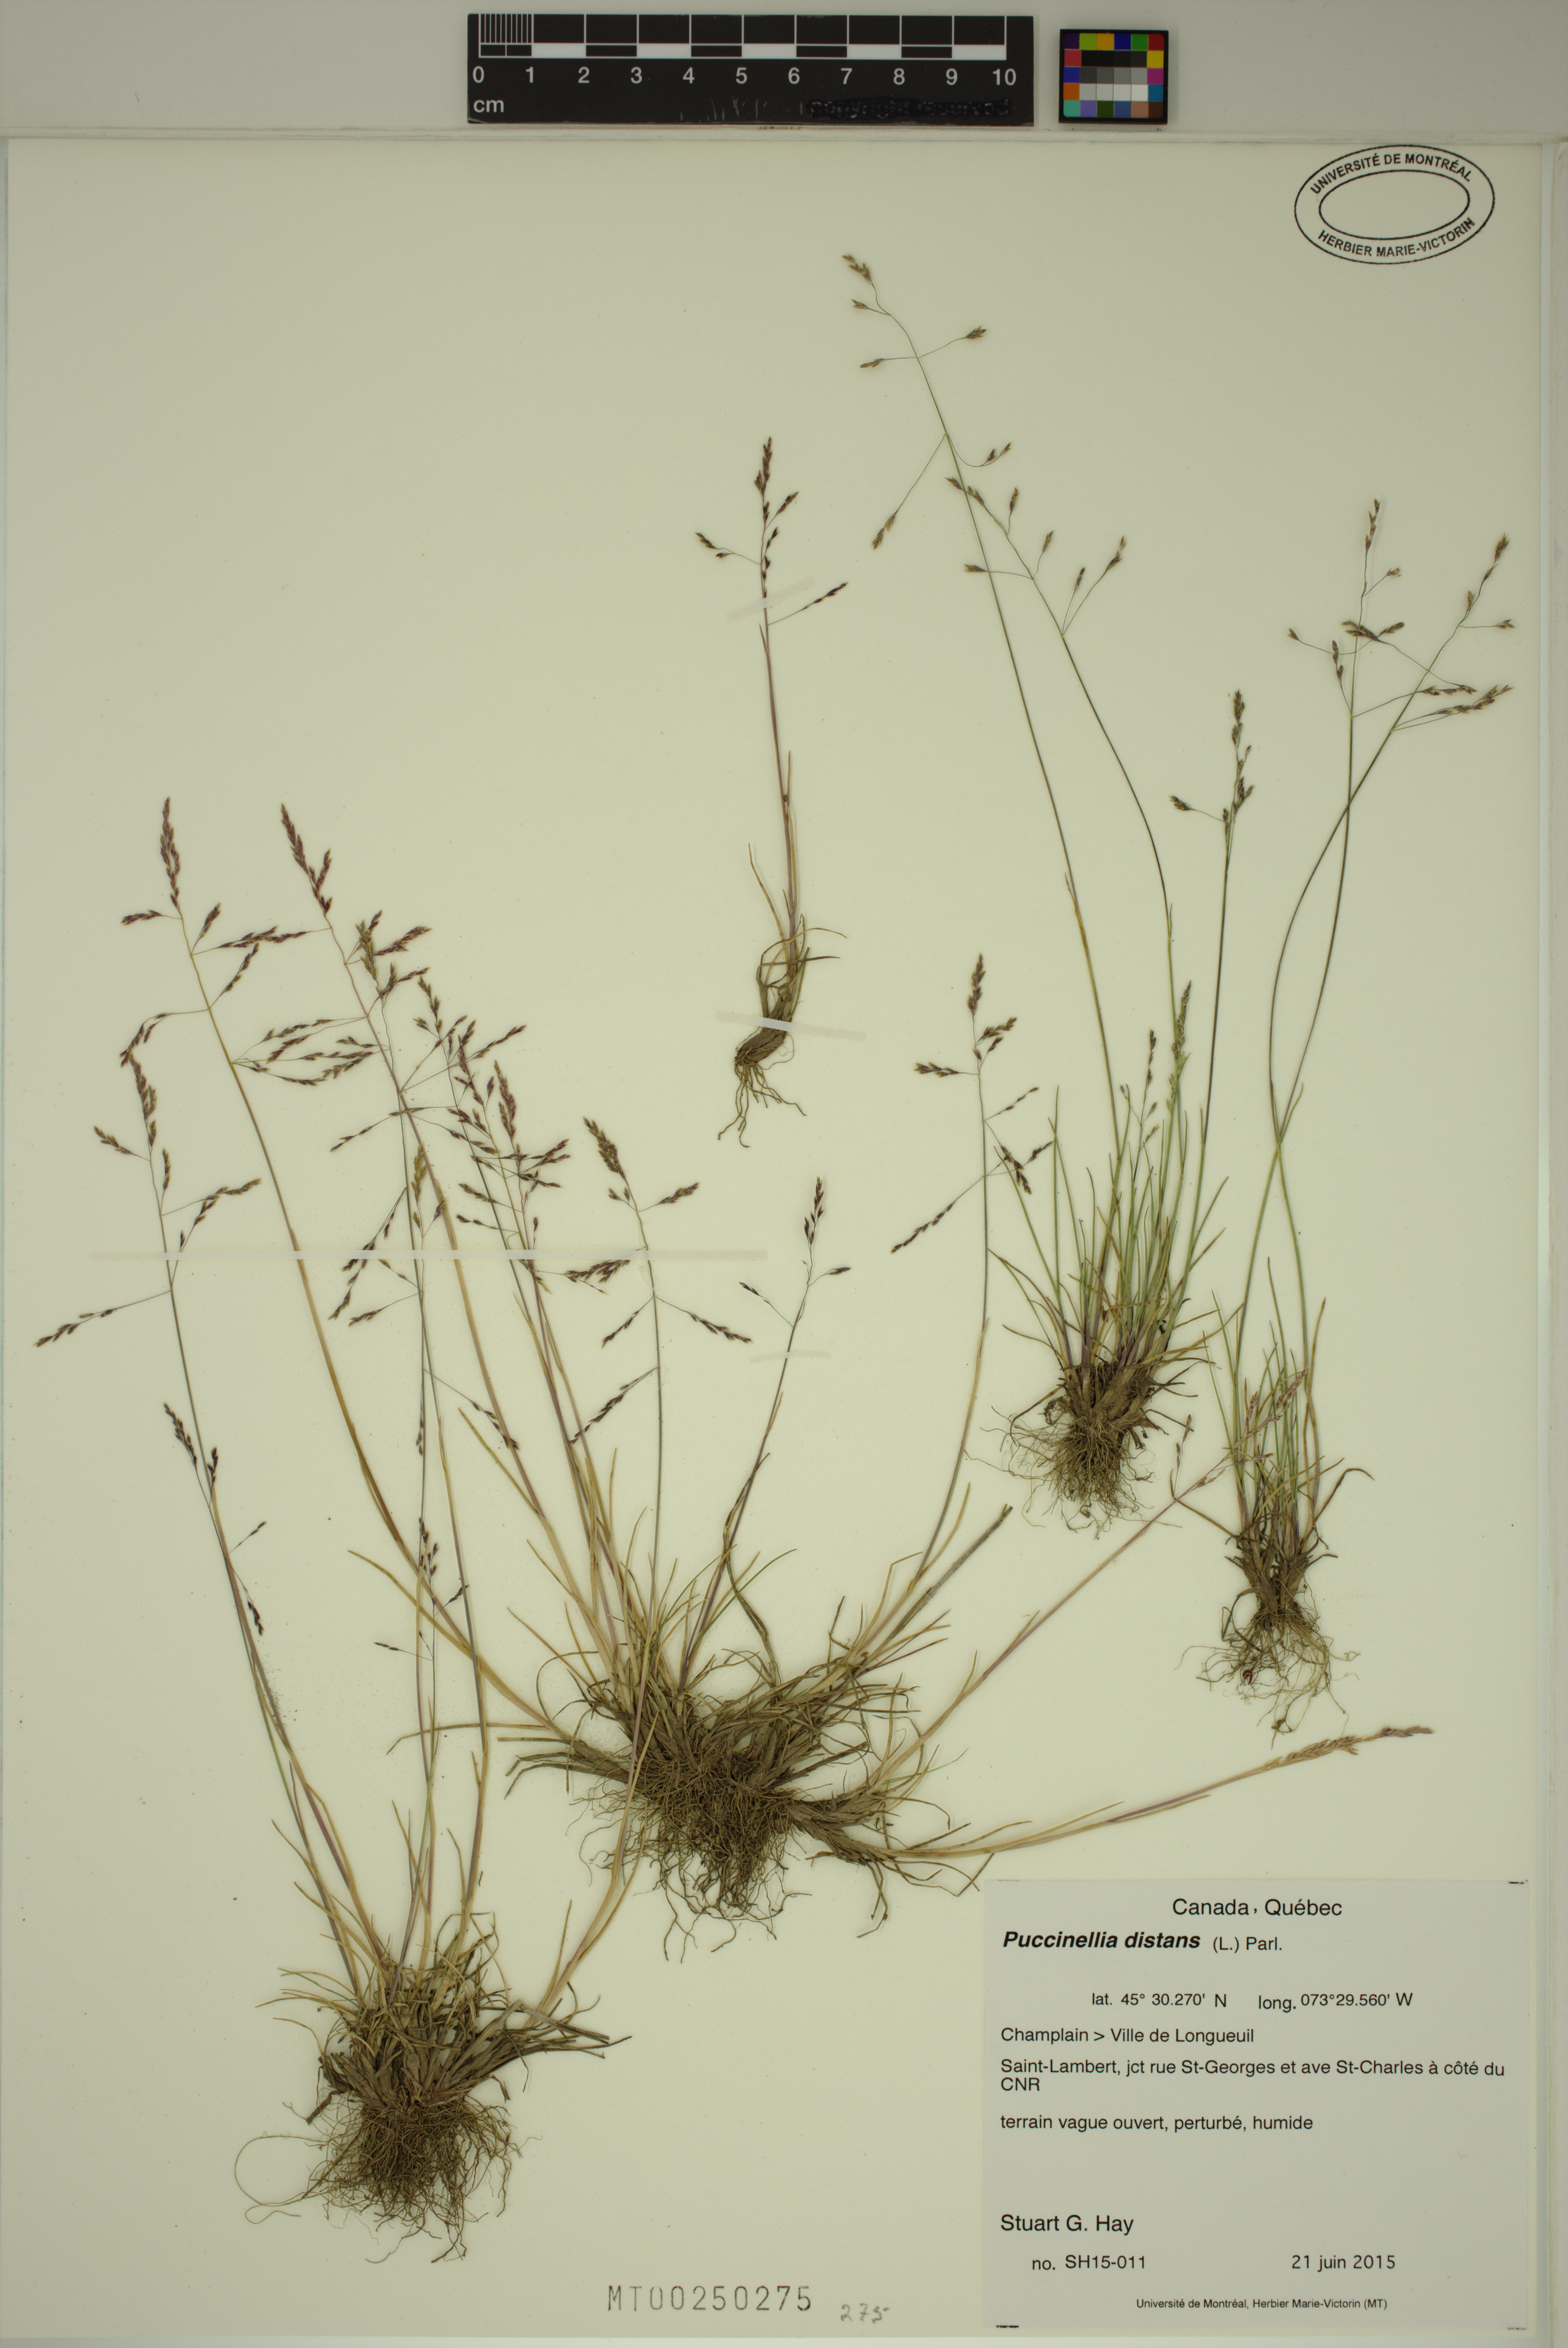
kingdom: Plantae
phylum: Tracheophyta
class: Liliopsida
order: Poales
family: Poaceae
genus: Puccinellia
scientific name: Puccinellia distans
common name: Weeping alkaligrass
